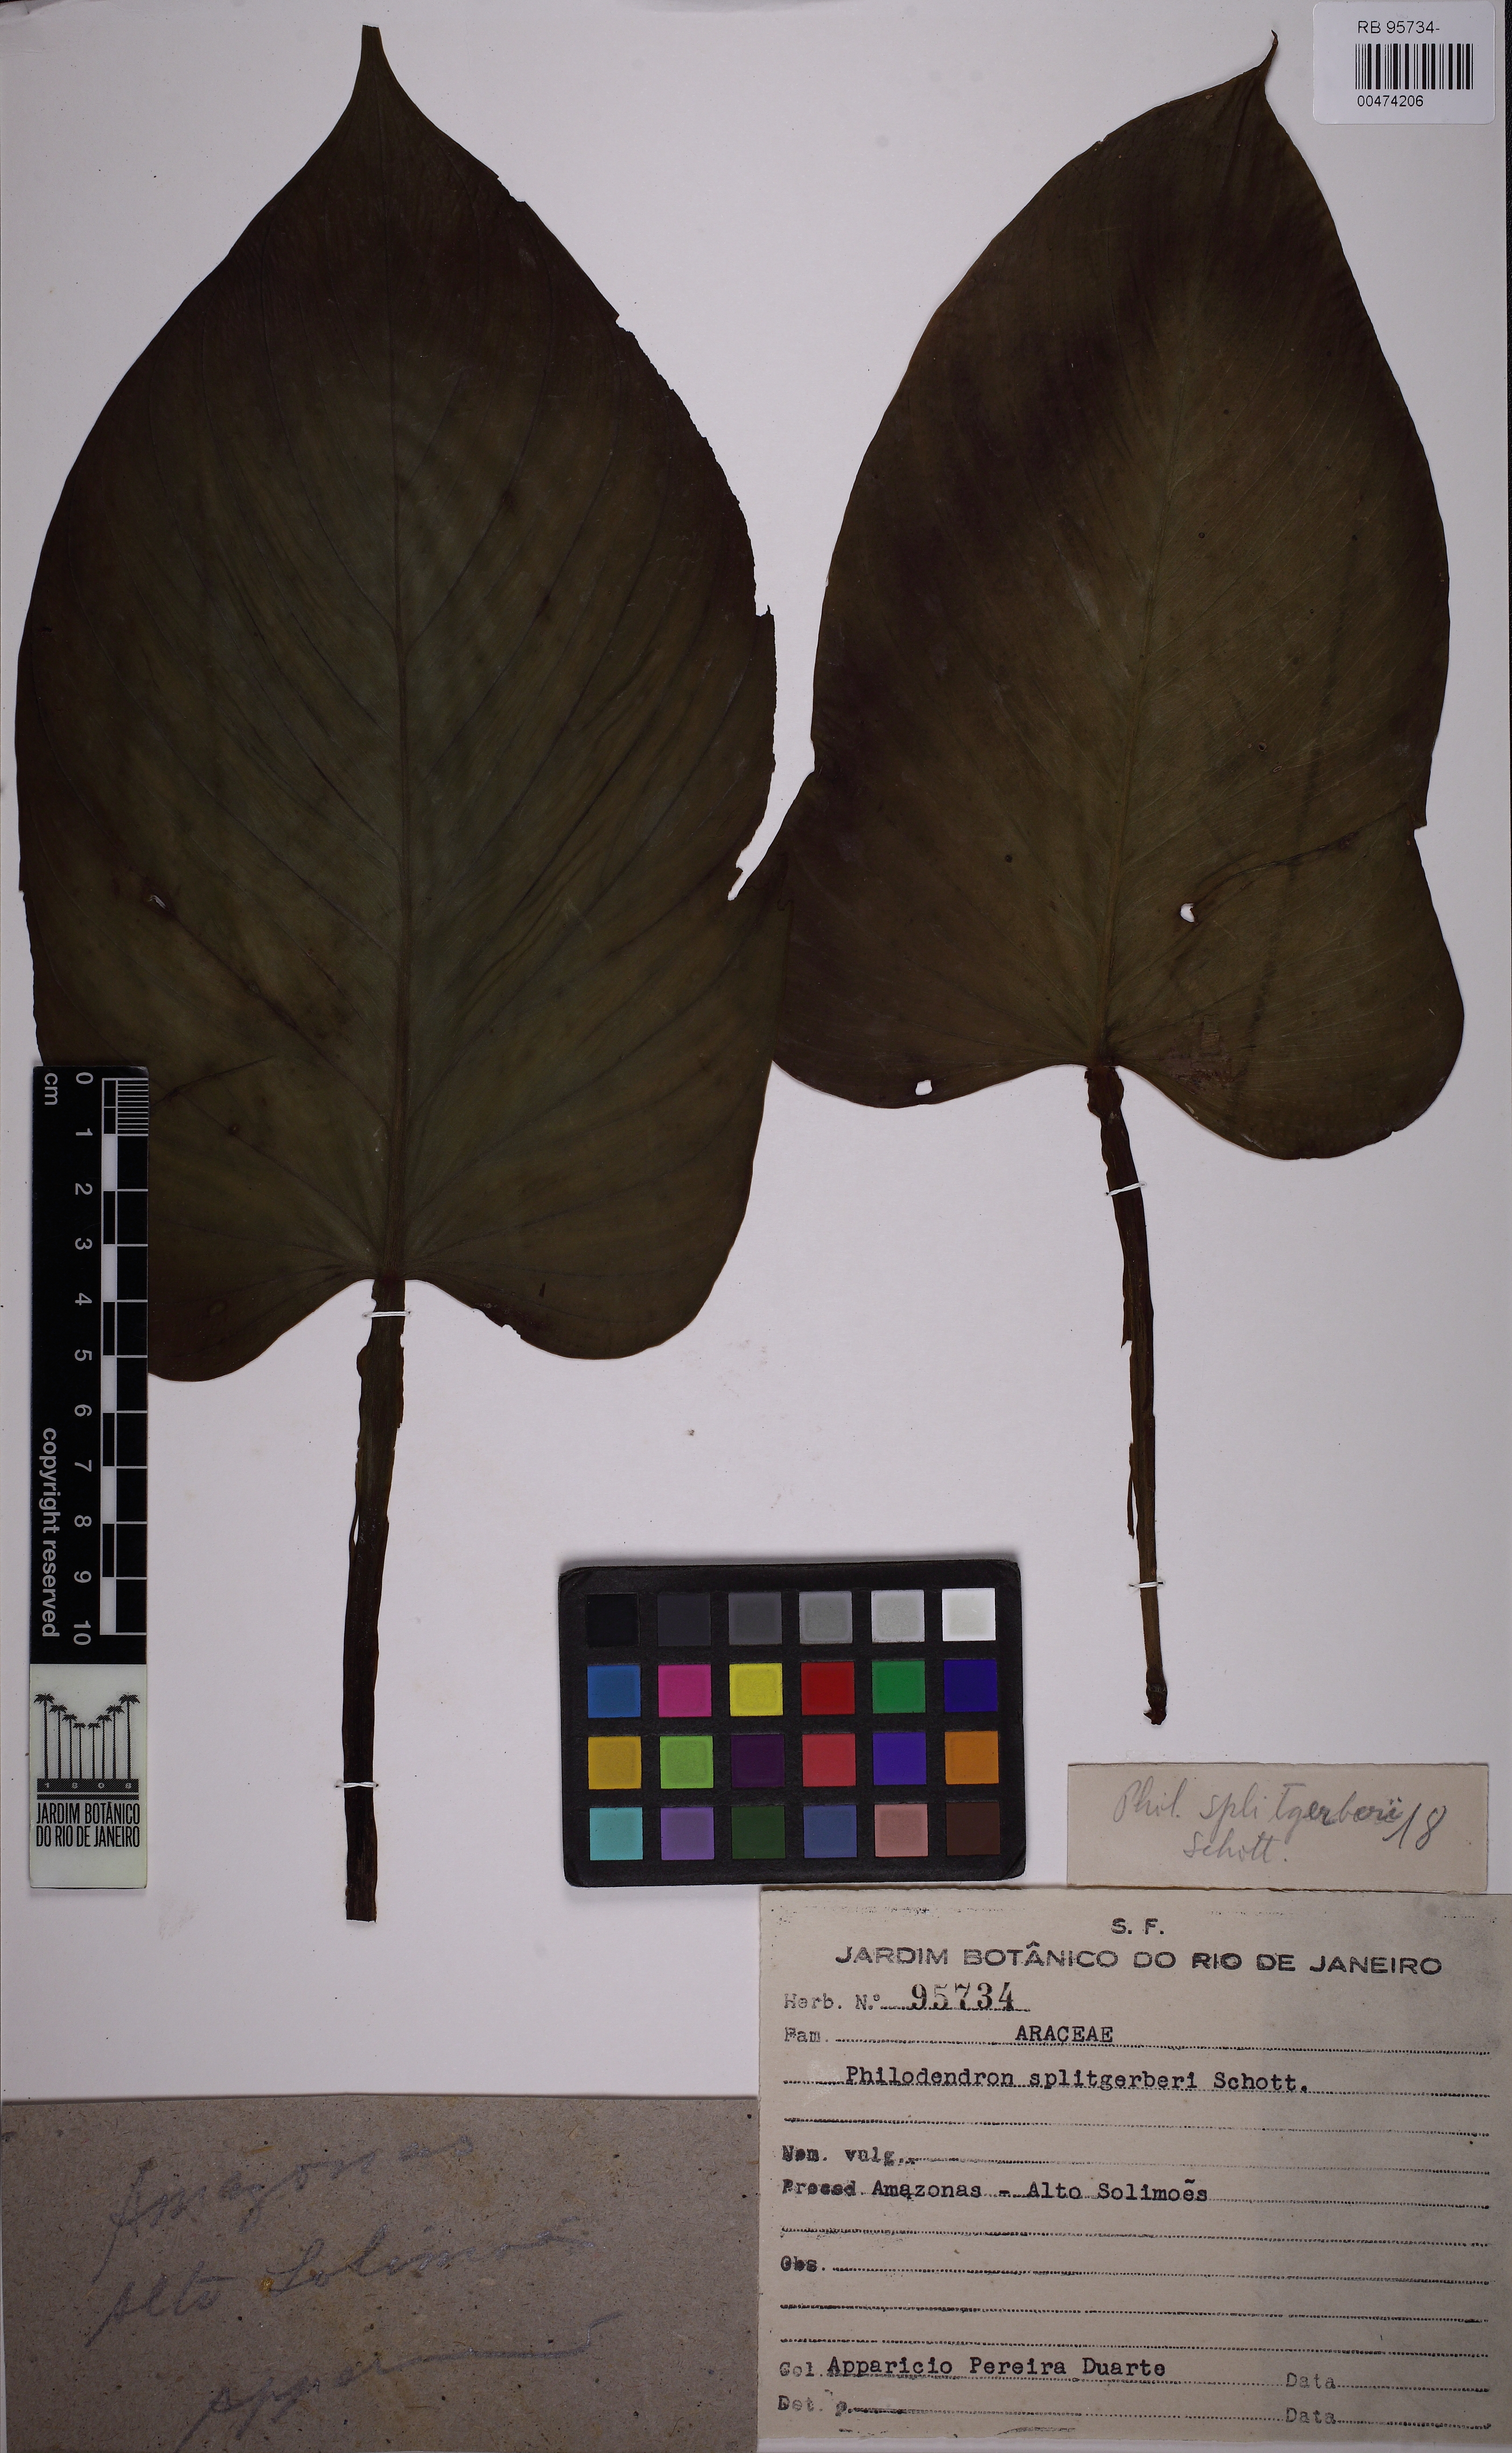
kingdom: Plantae
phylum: Tracheophyta
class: Liliopsida
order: Alismatales
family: Araceae
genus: Philodendron
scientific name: Philodendron splitgerberi
